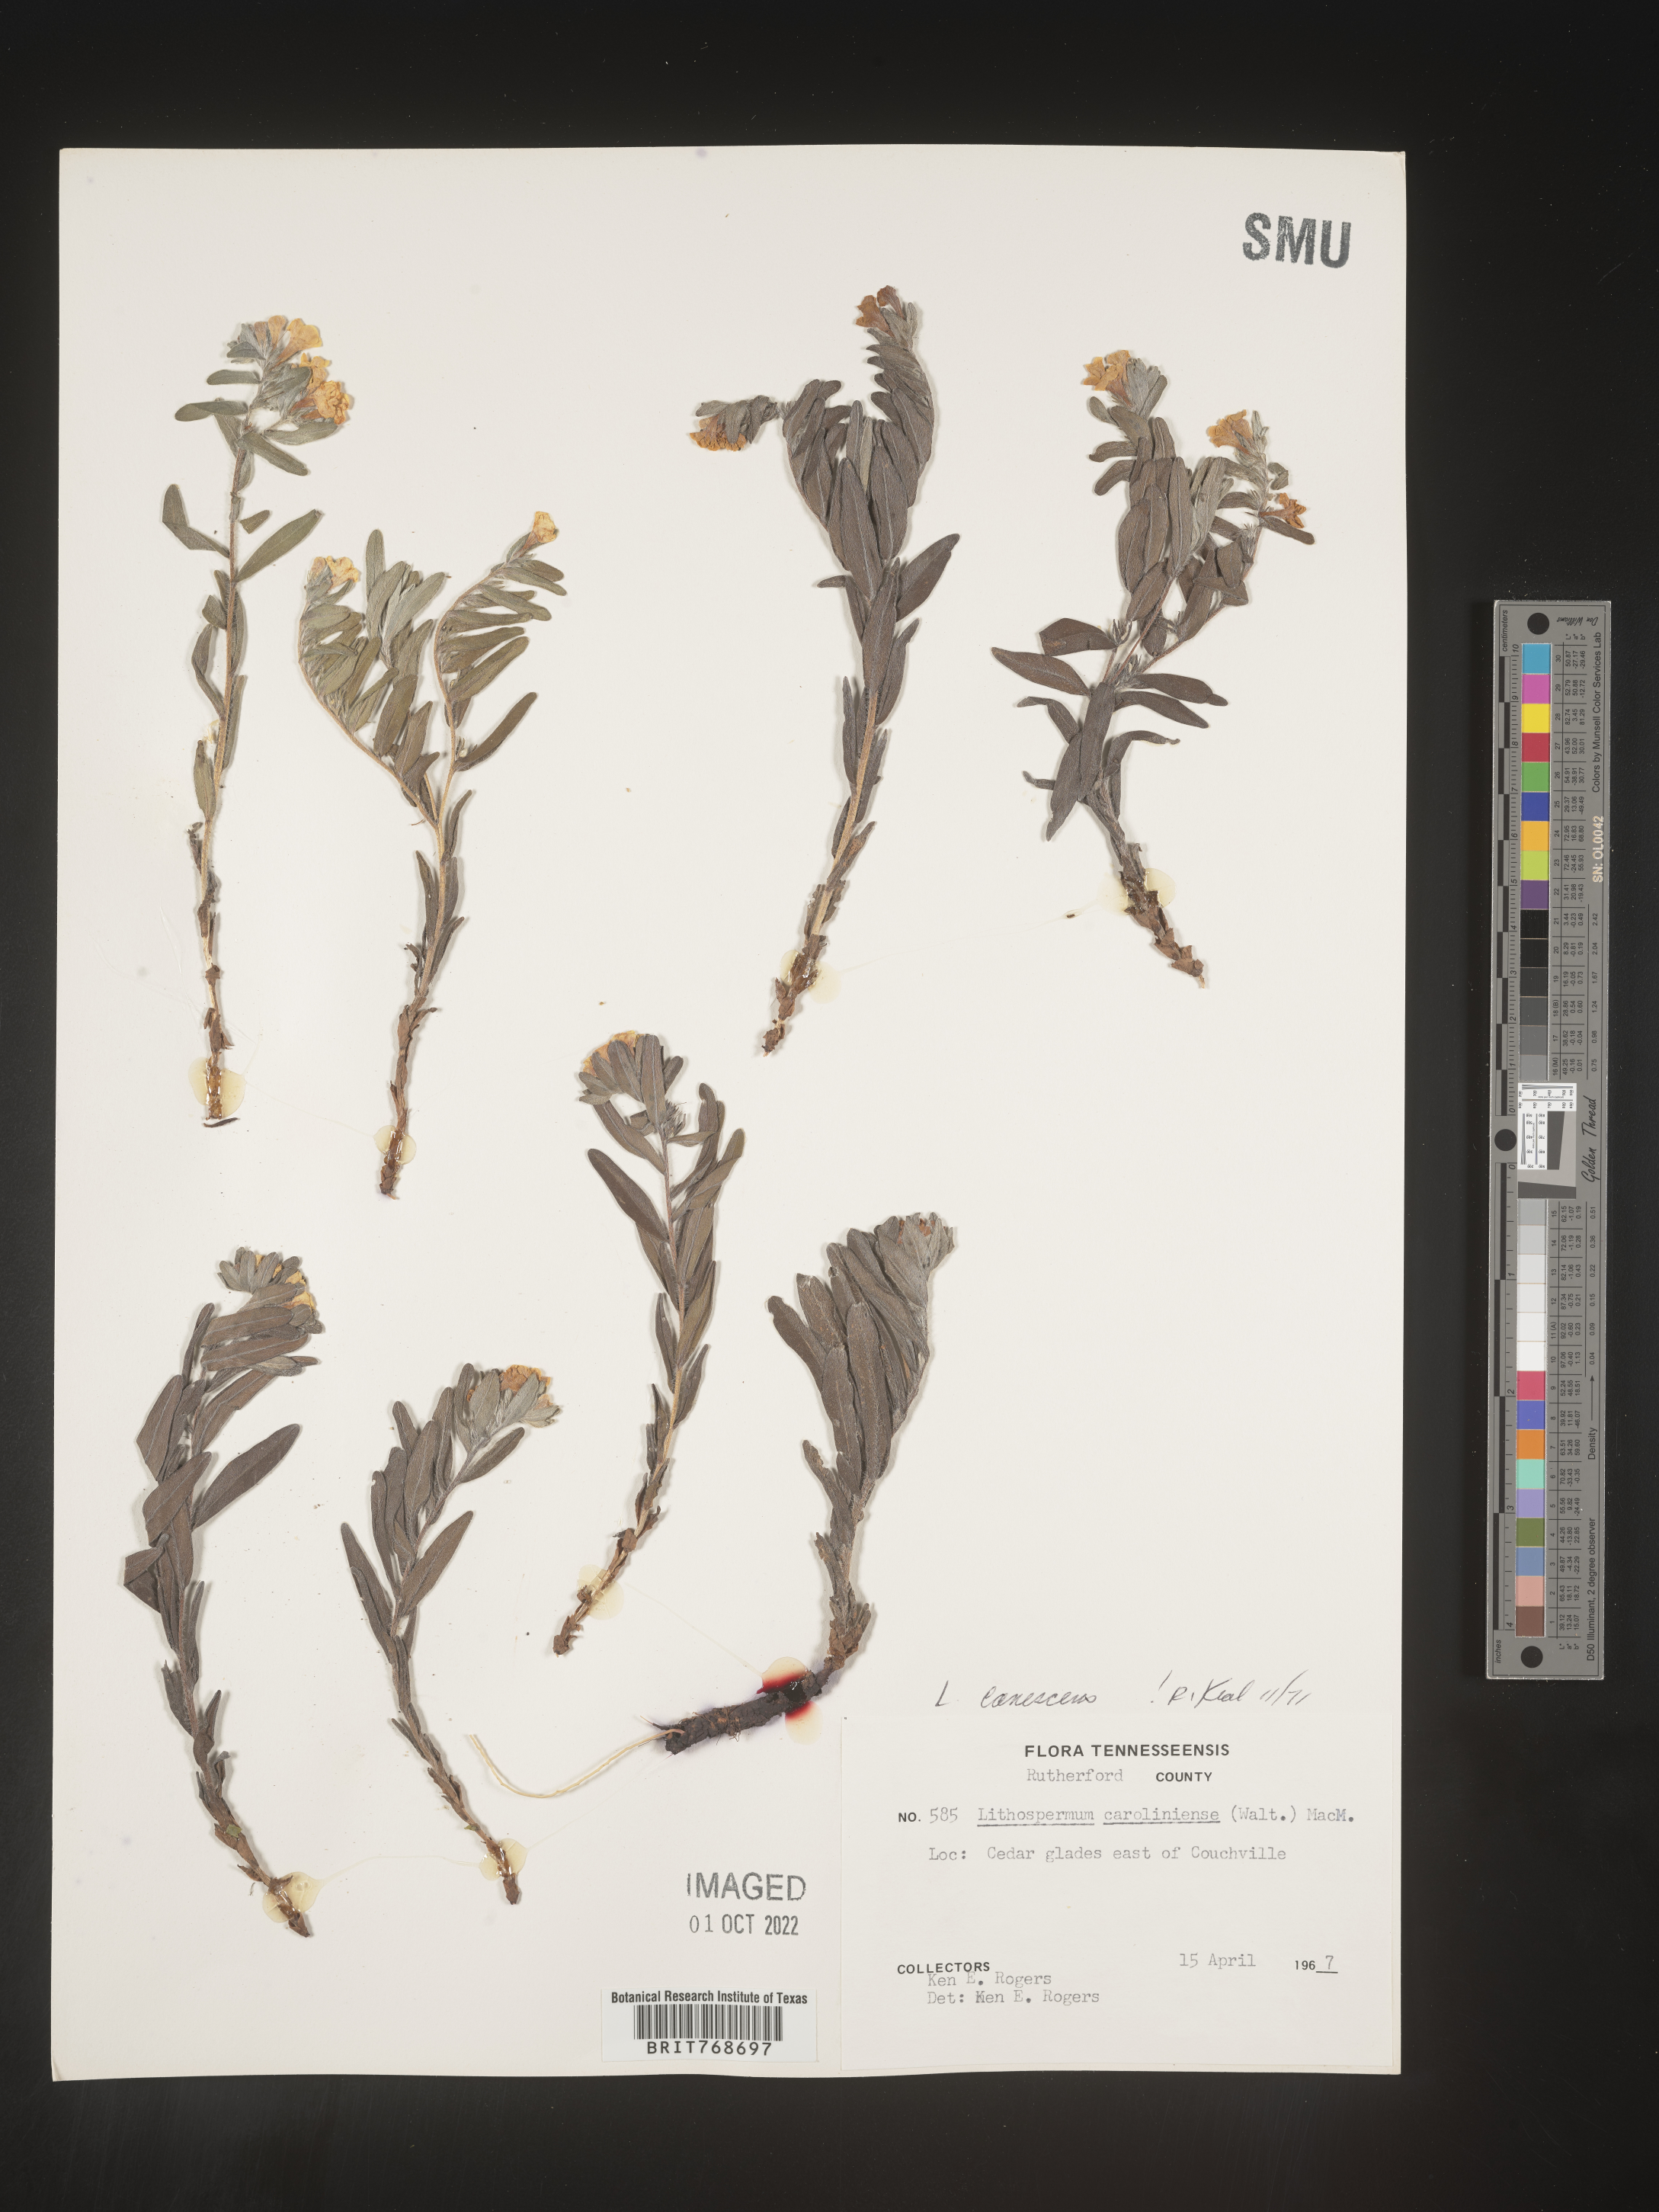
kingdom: Plantae
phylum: Tracheophyta
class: Magnoliopsida
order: Boraginales
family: Boraginaceae
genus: Lithospermum
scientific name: Lithospermum caroliniense
